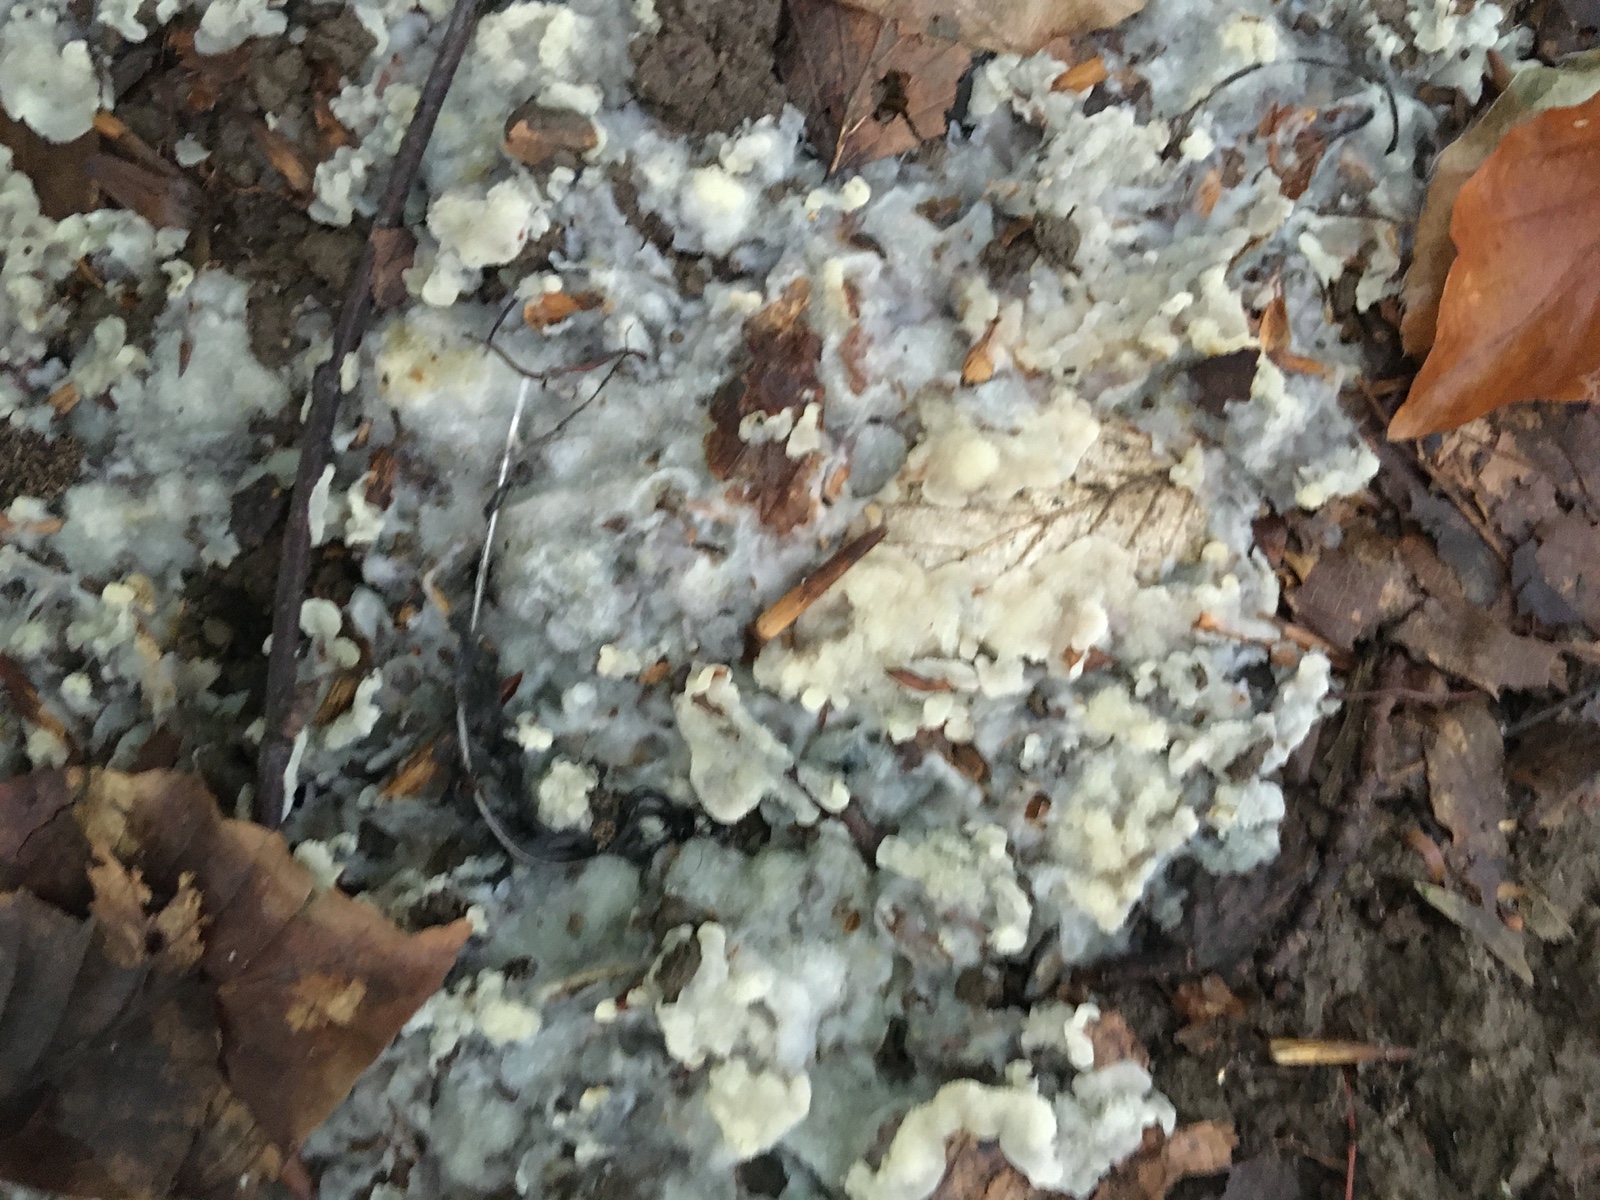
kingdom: Fungi
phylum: Basidiomycota
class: Agaricomycetes
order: Polyporales
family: Meruliaceae
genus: Physisporinus
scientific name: Physisporinus vitreus
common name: mastesvamp
